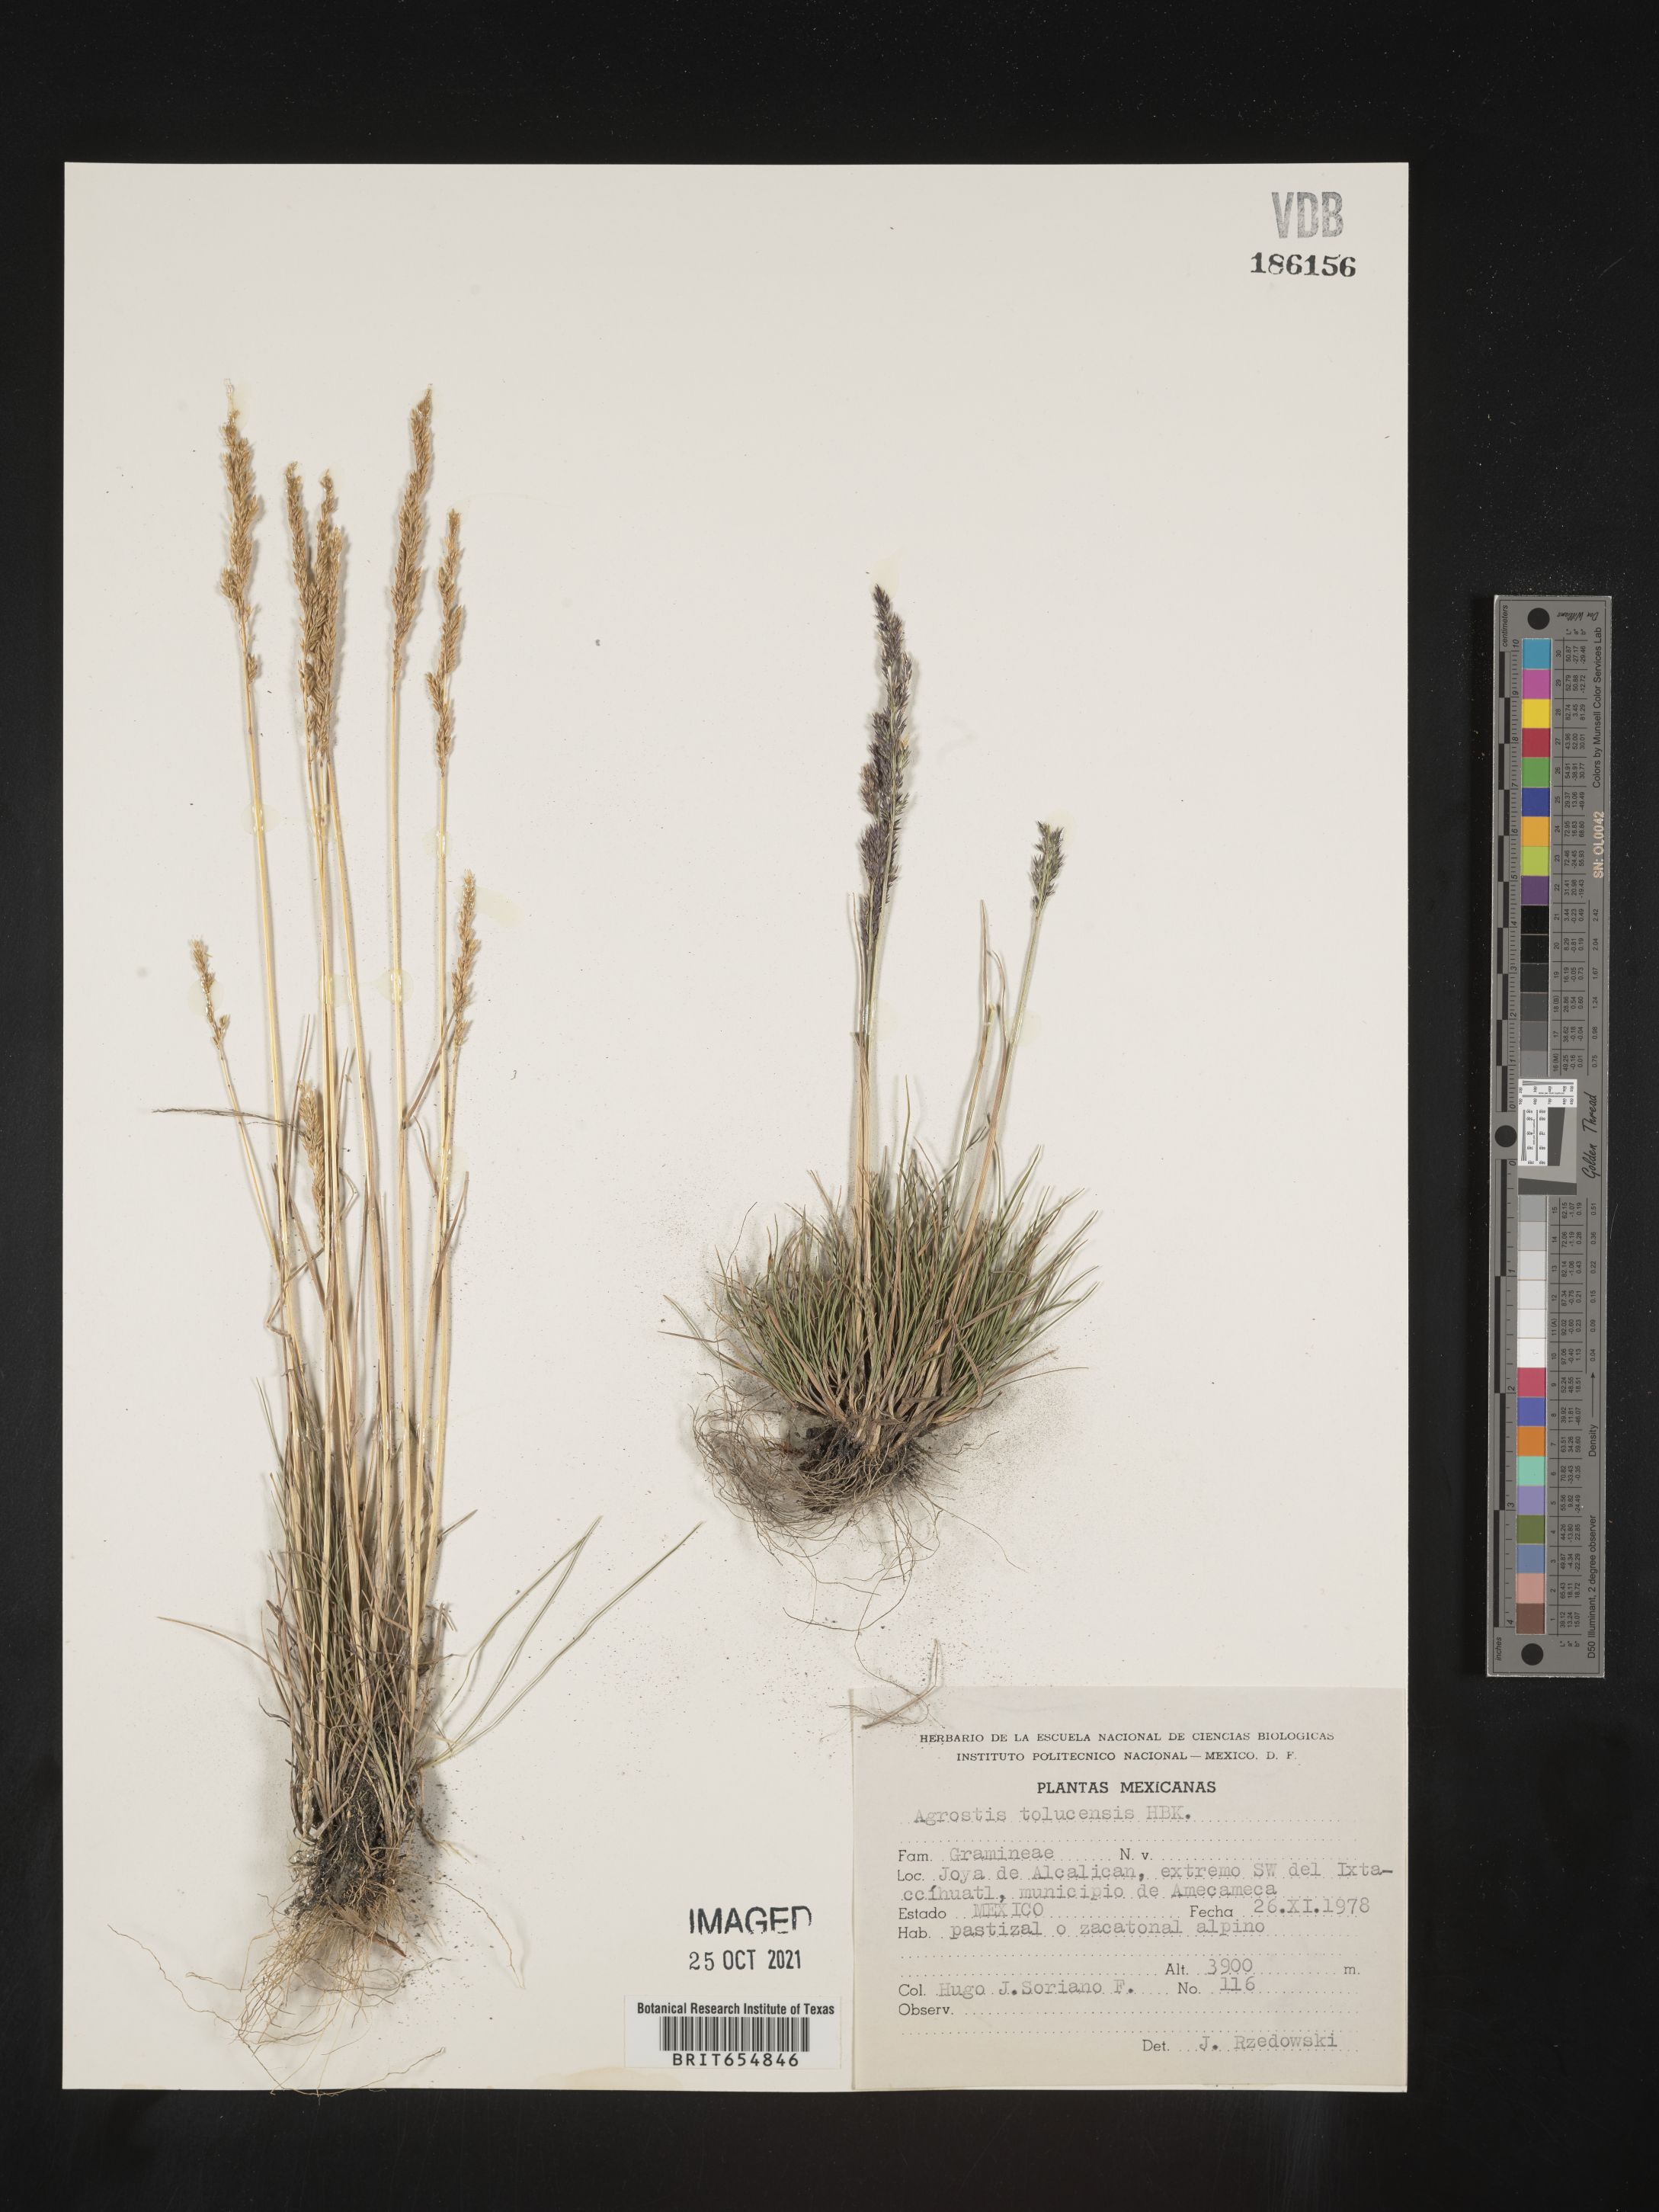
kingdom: Plantae
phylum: Tracheophyta
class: Liliopsida
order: Poales
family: Poaceae
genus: Agrostis
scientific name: Agrostis
